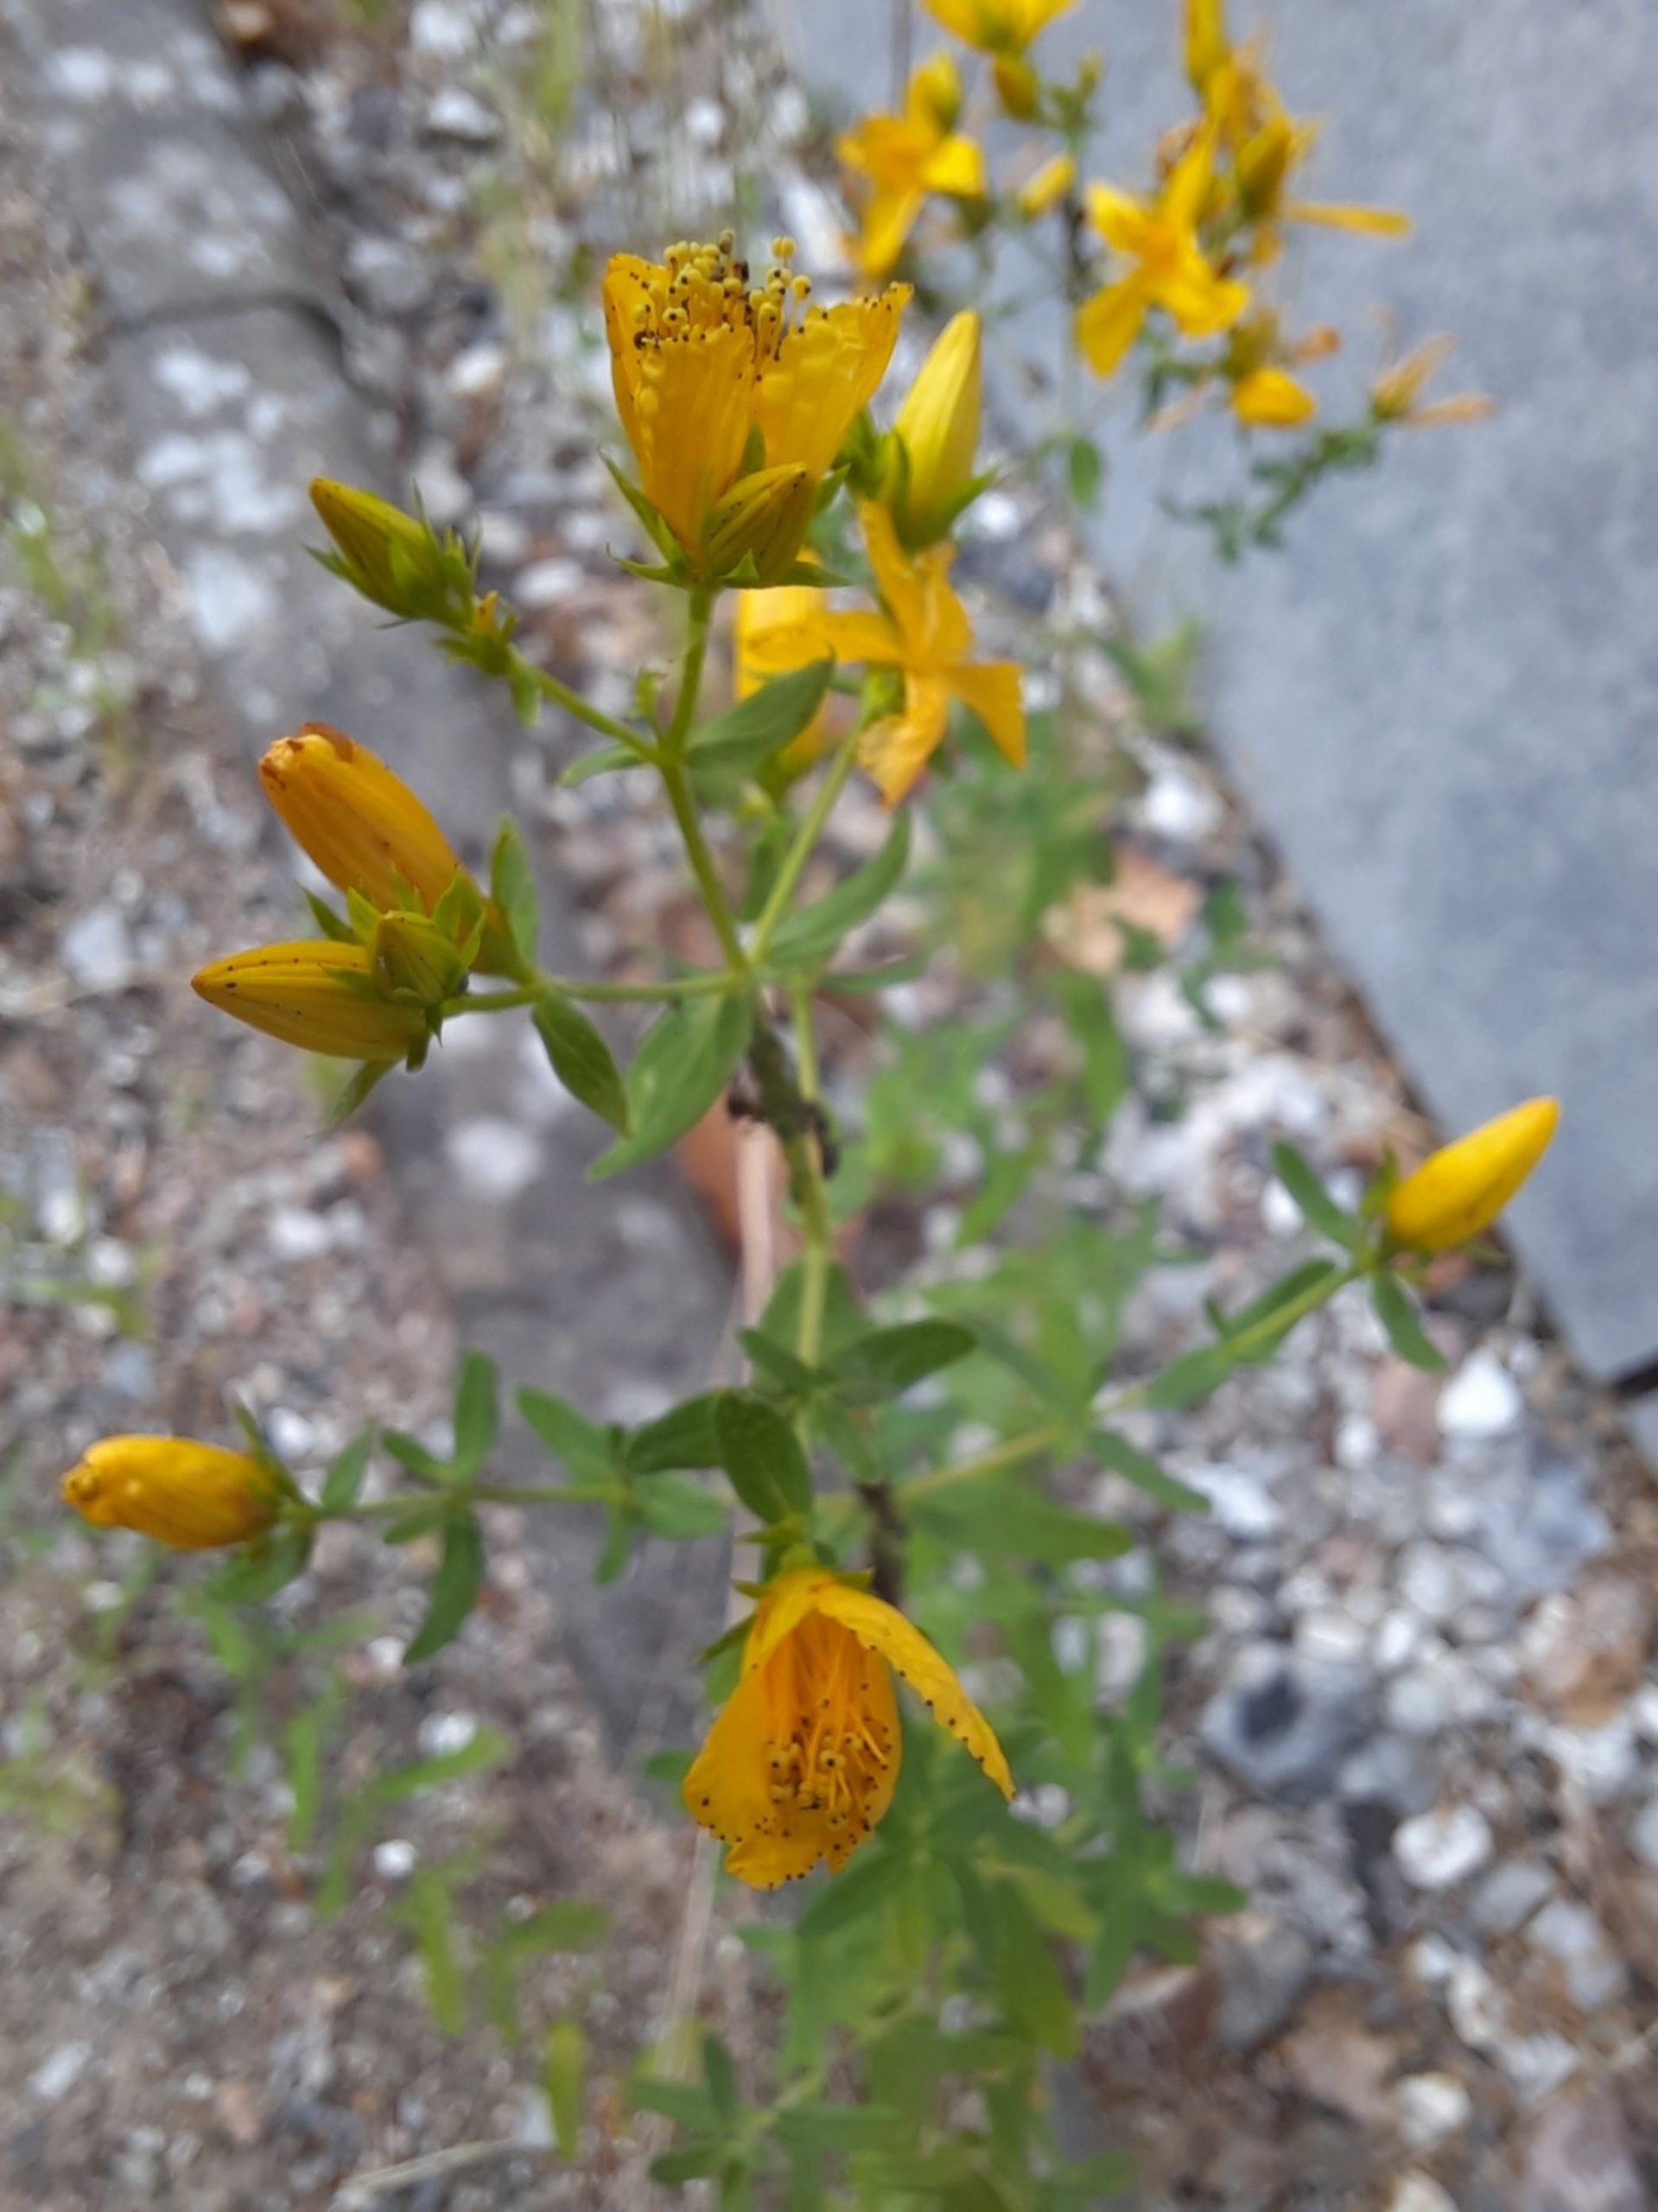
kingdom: Plantae
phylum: Tracheophyta
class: Magnoliopsida
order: Malpighiales
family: Hypericaceae
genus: Hypericum
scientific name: Hypericum perforatum
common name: Prikbladet perikon
